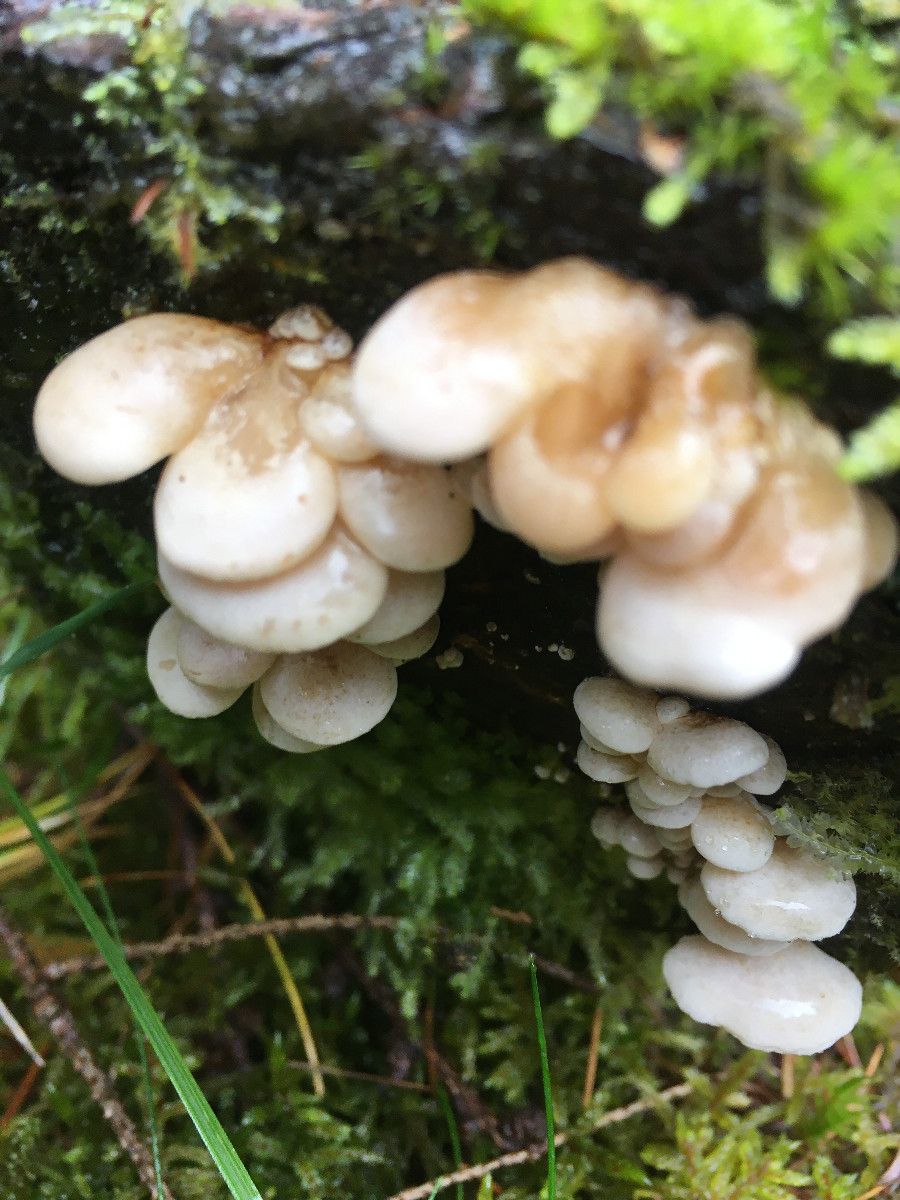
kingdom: Fungi
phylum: Basidiomycota
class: Agaricomycetes
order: Agaricales
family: Mycenaceae
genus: Panellus
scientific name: Panellus mitis
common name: mild epaulethat
